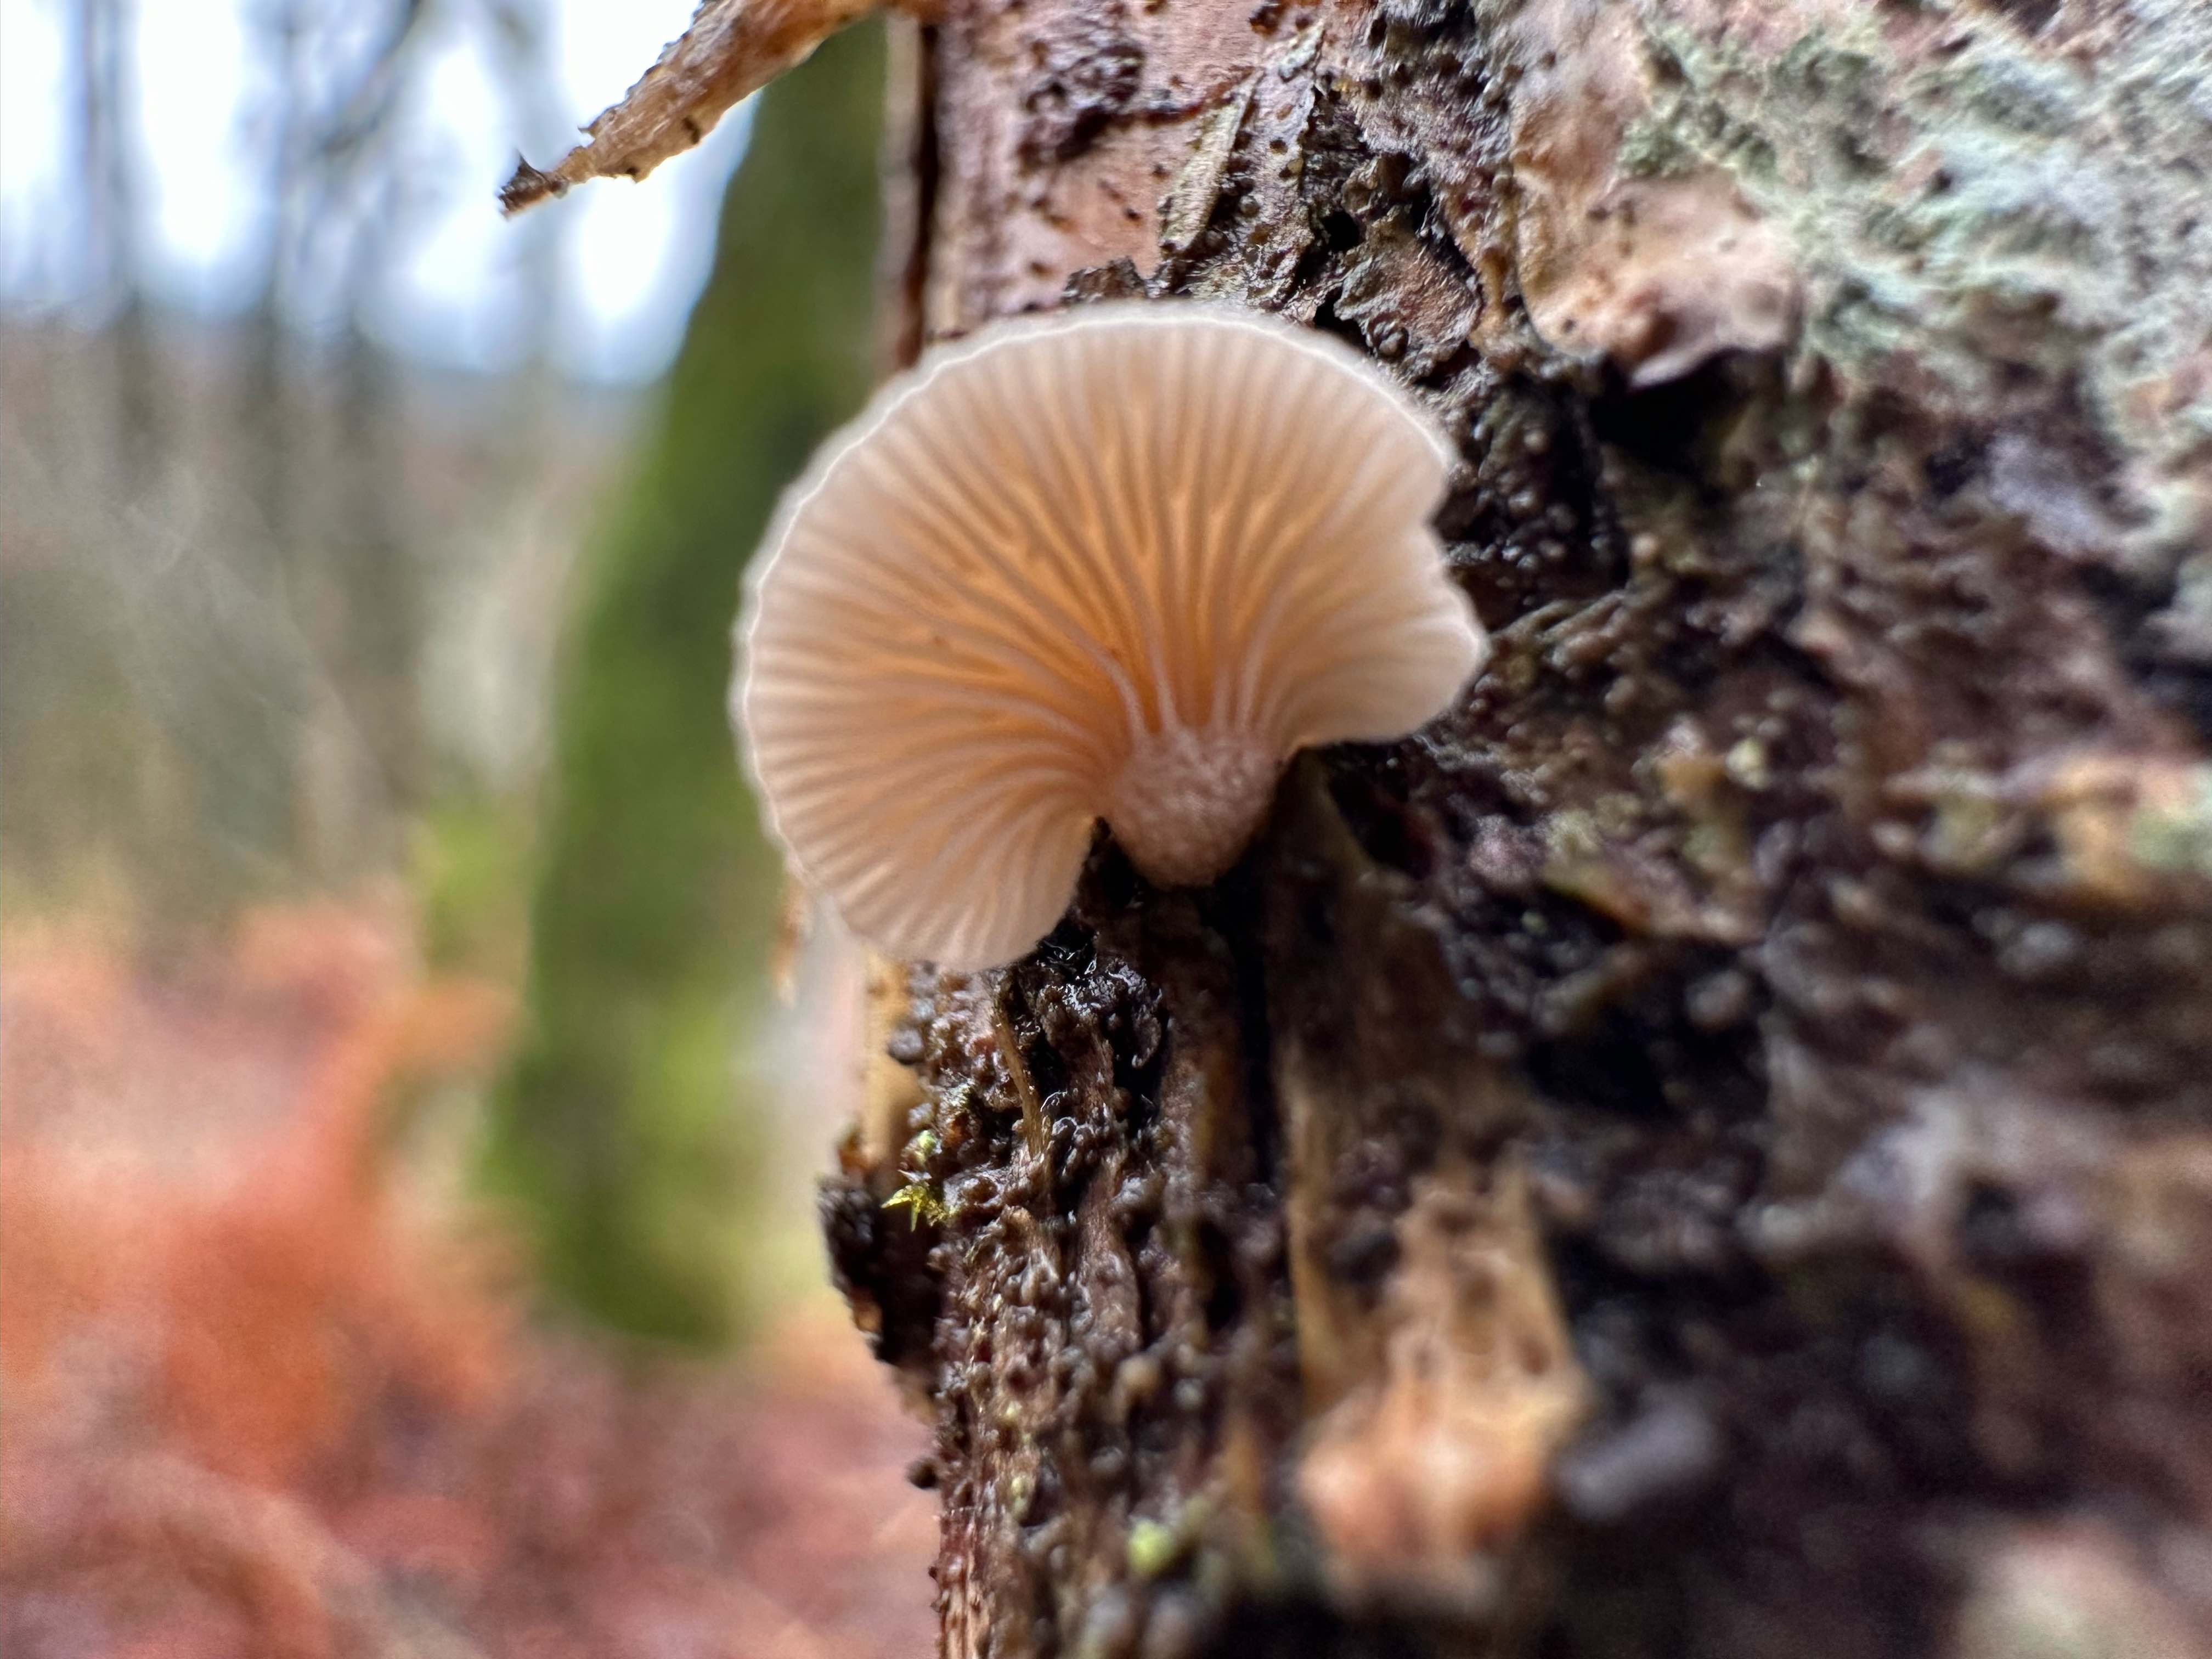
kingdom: Fungi
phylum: Basidiomycota
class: Agaricomycetes
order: Agaricales
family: Mycenaceae
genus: Panellus
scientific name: Panellus mitis
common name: mild epaulethat
